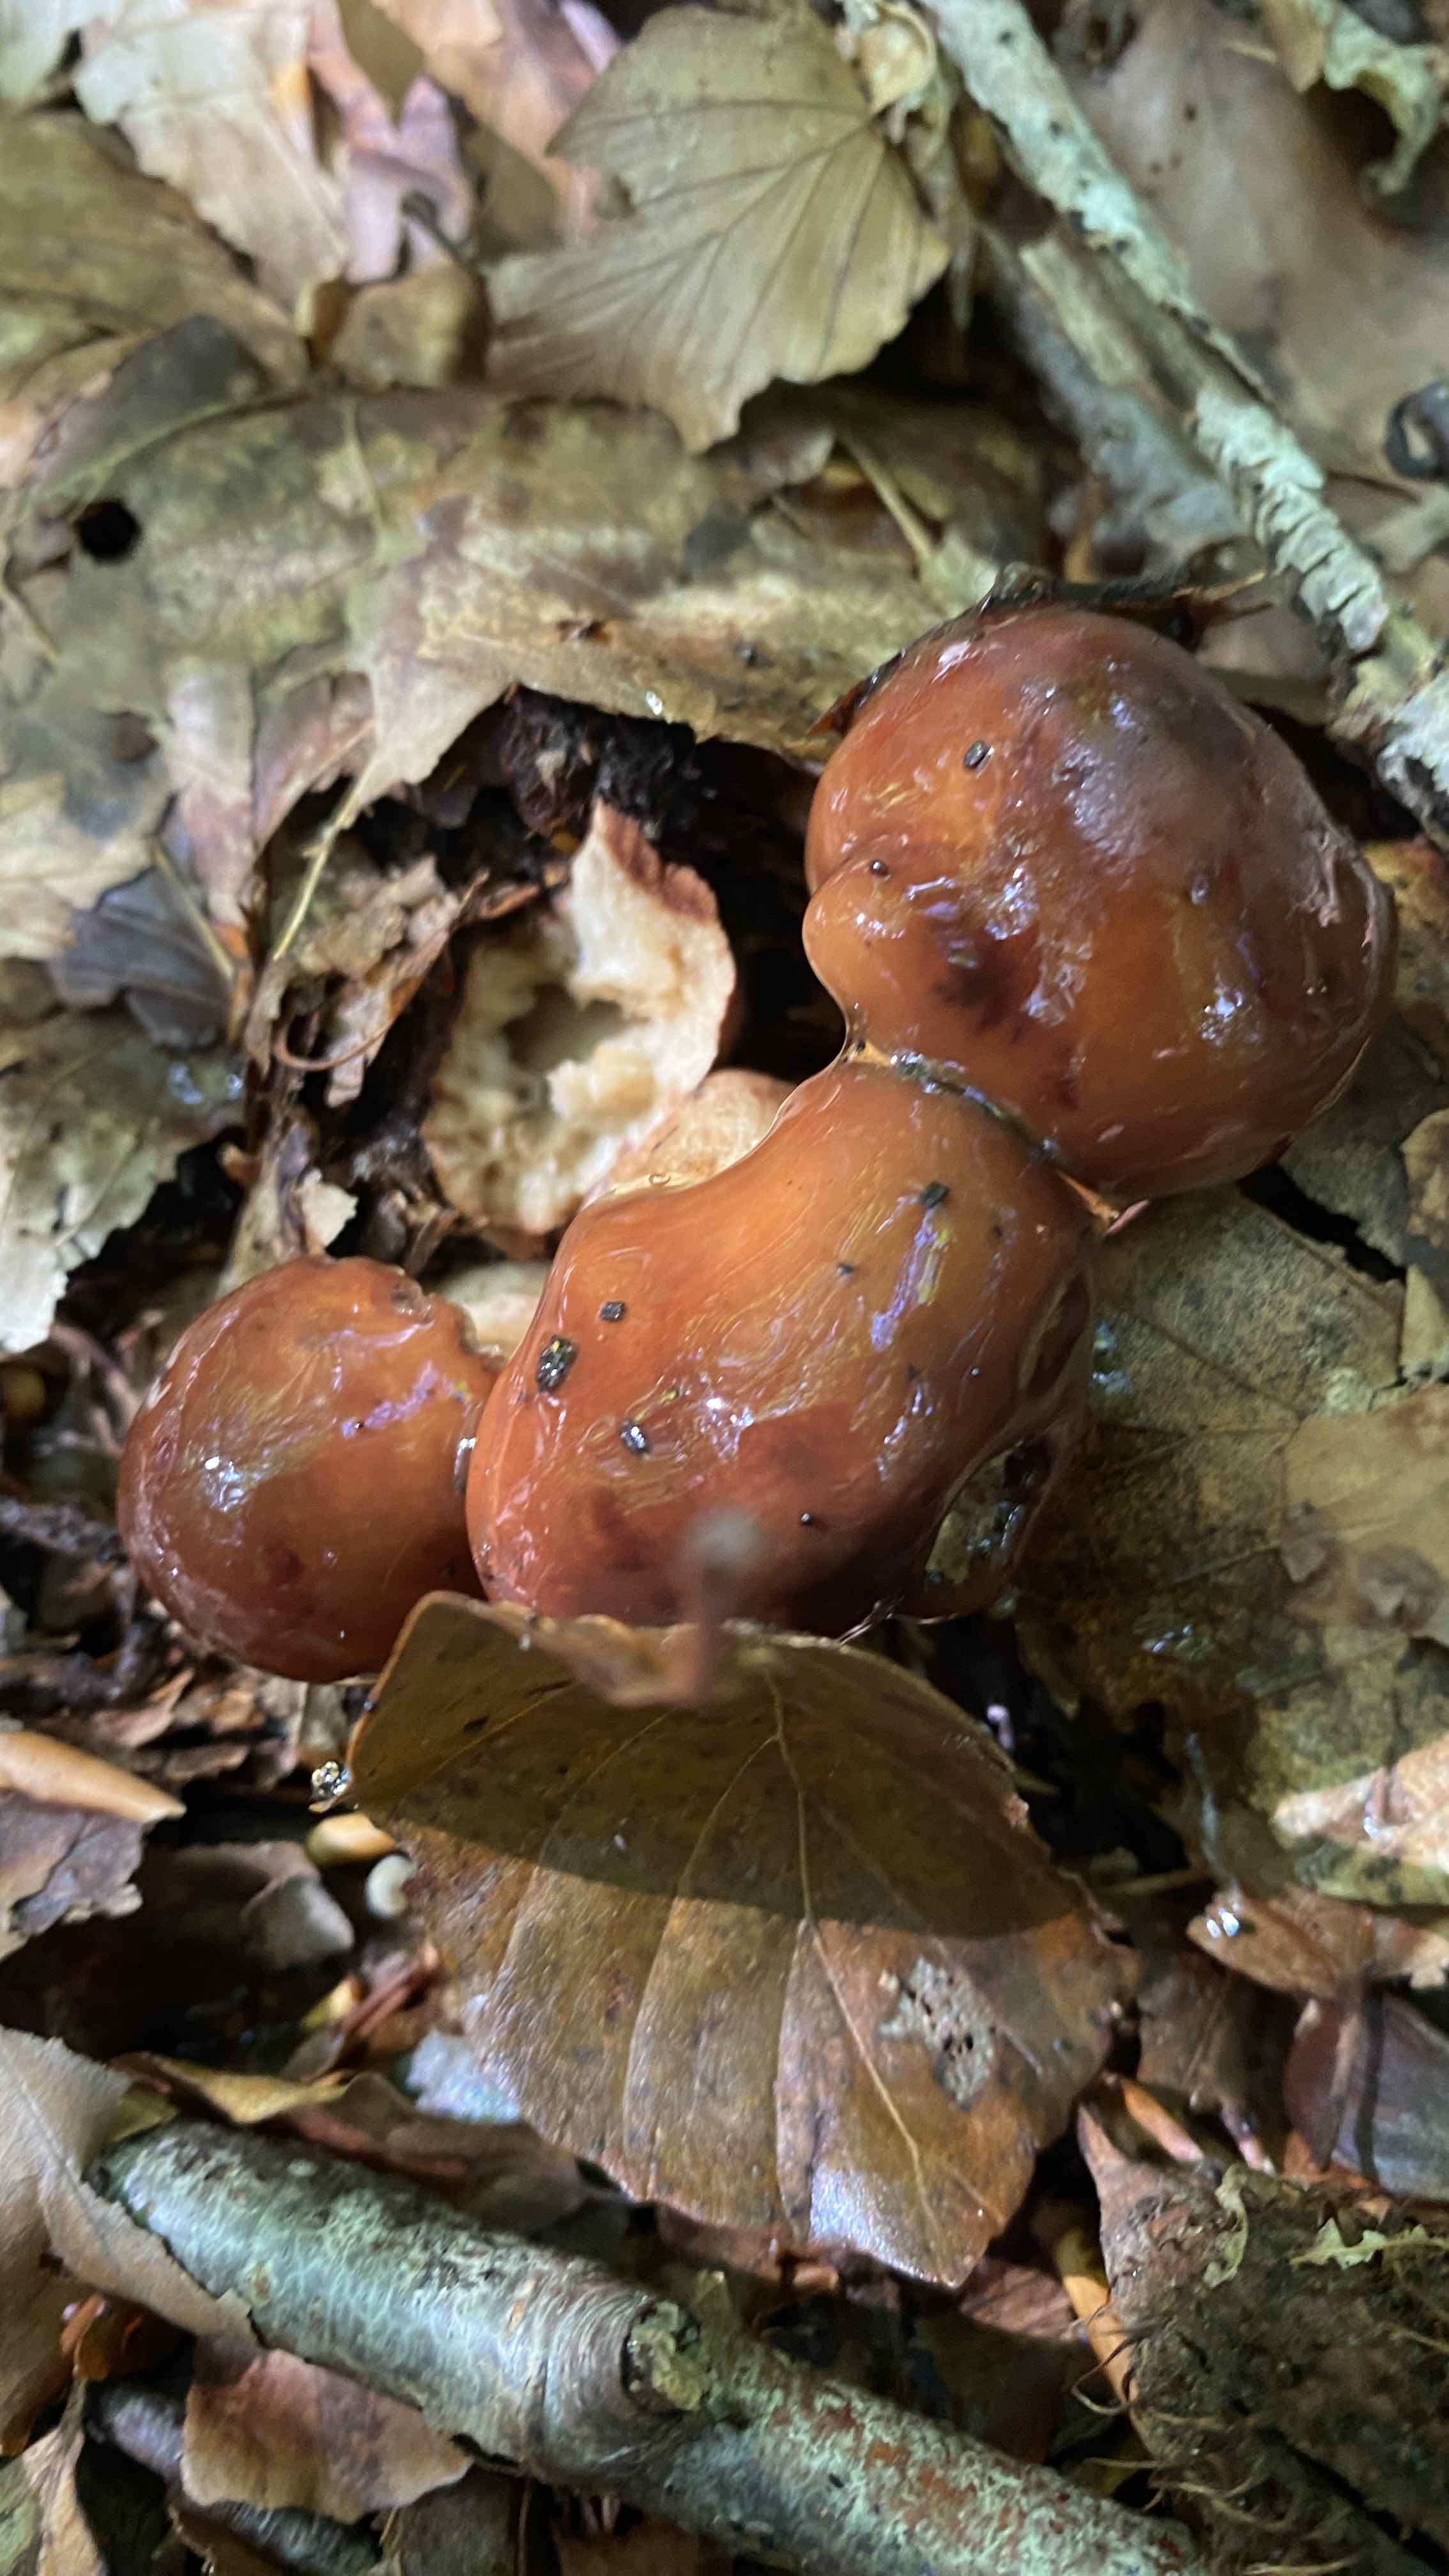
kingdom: Fungi
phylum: Basidiomycota
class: Agaricomycetes
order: Agaricales
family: Tricholomataceae
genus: Tricholoma
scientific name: Tricholoma ustale
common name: sveden ridderhat
